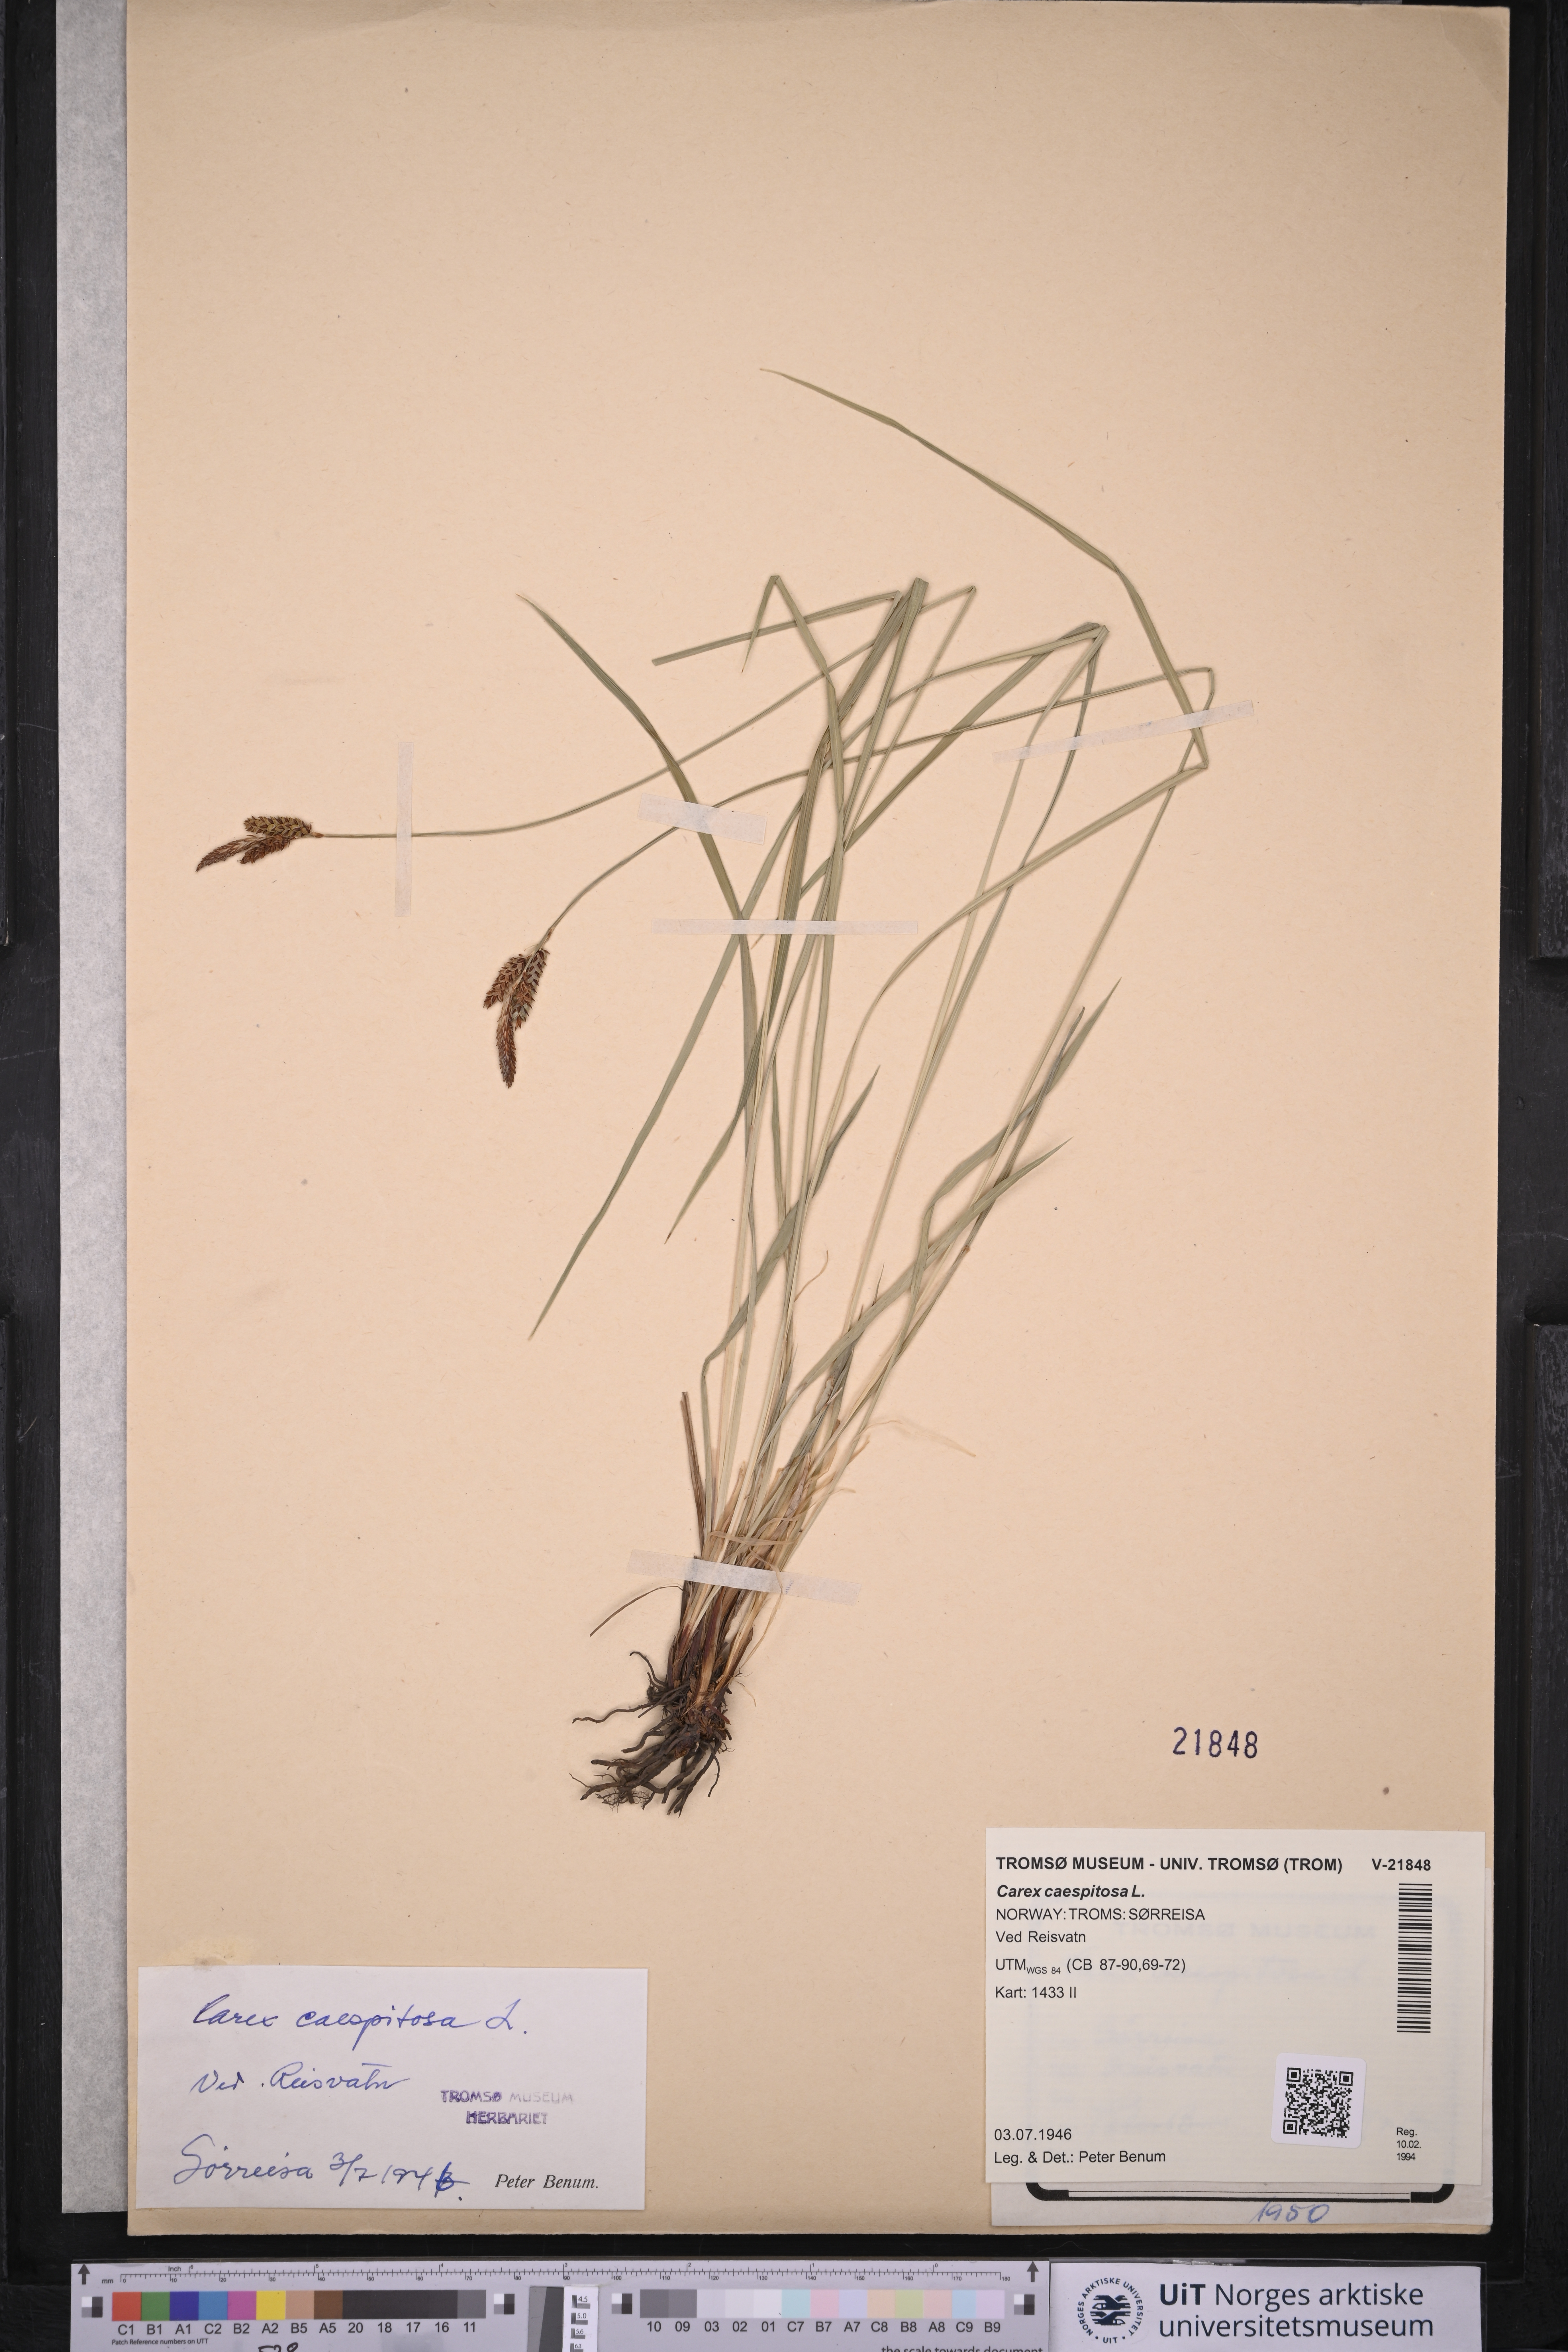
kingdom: Plantae
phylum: Tracheophyta
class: Liliopsida
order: Poales
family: Cyperaceae
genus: Carex
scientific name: Carex cespitosa
